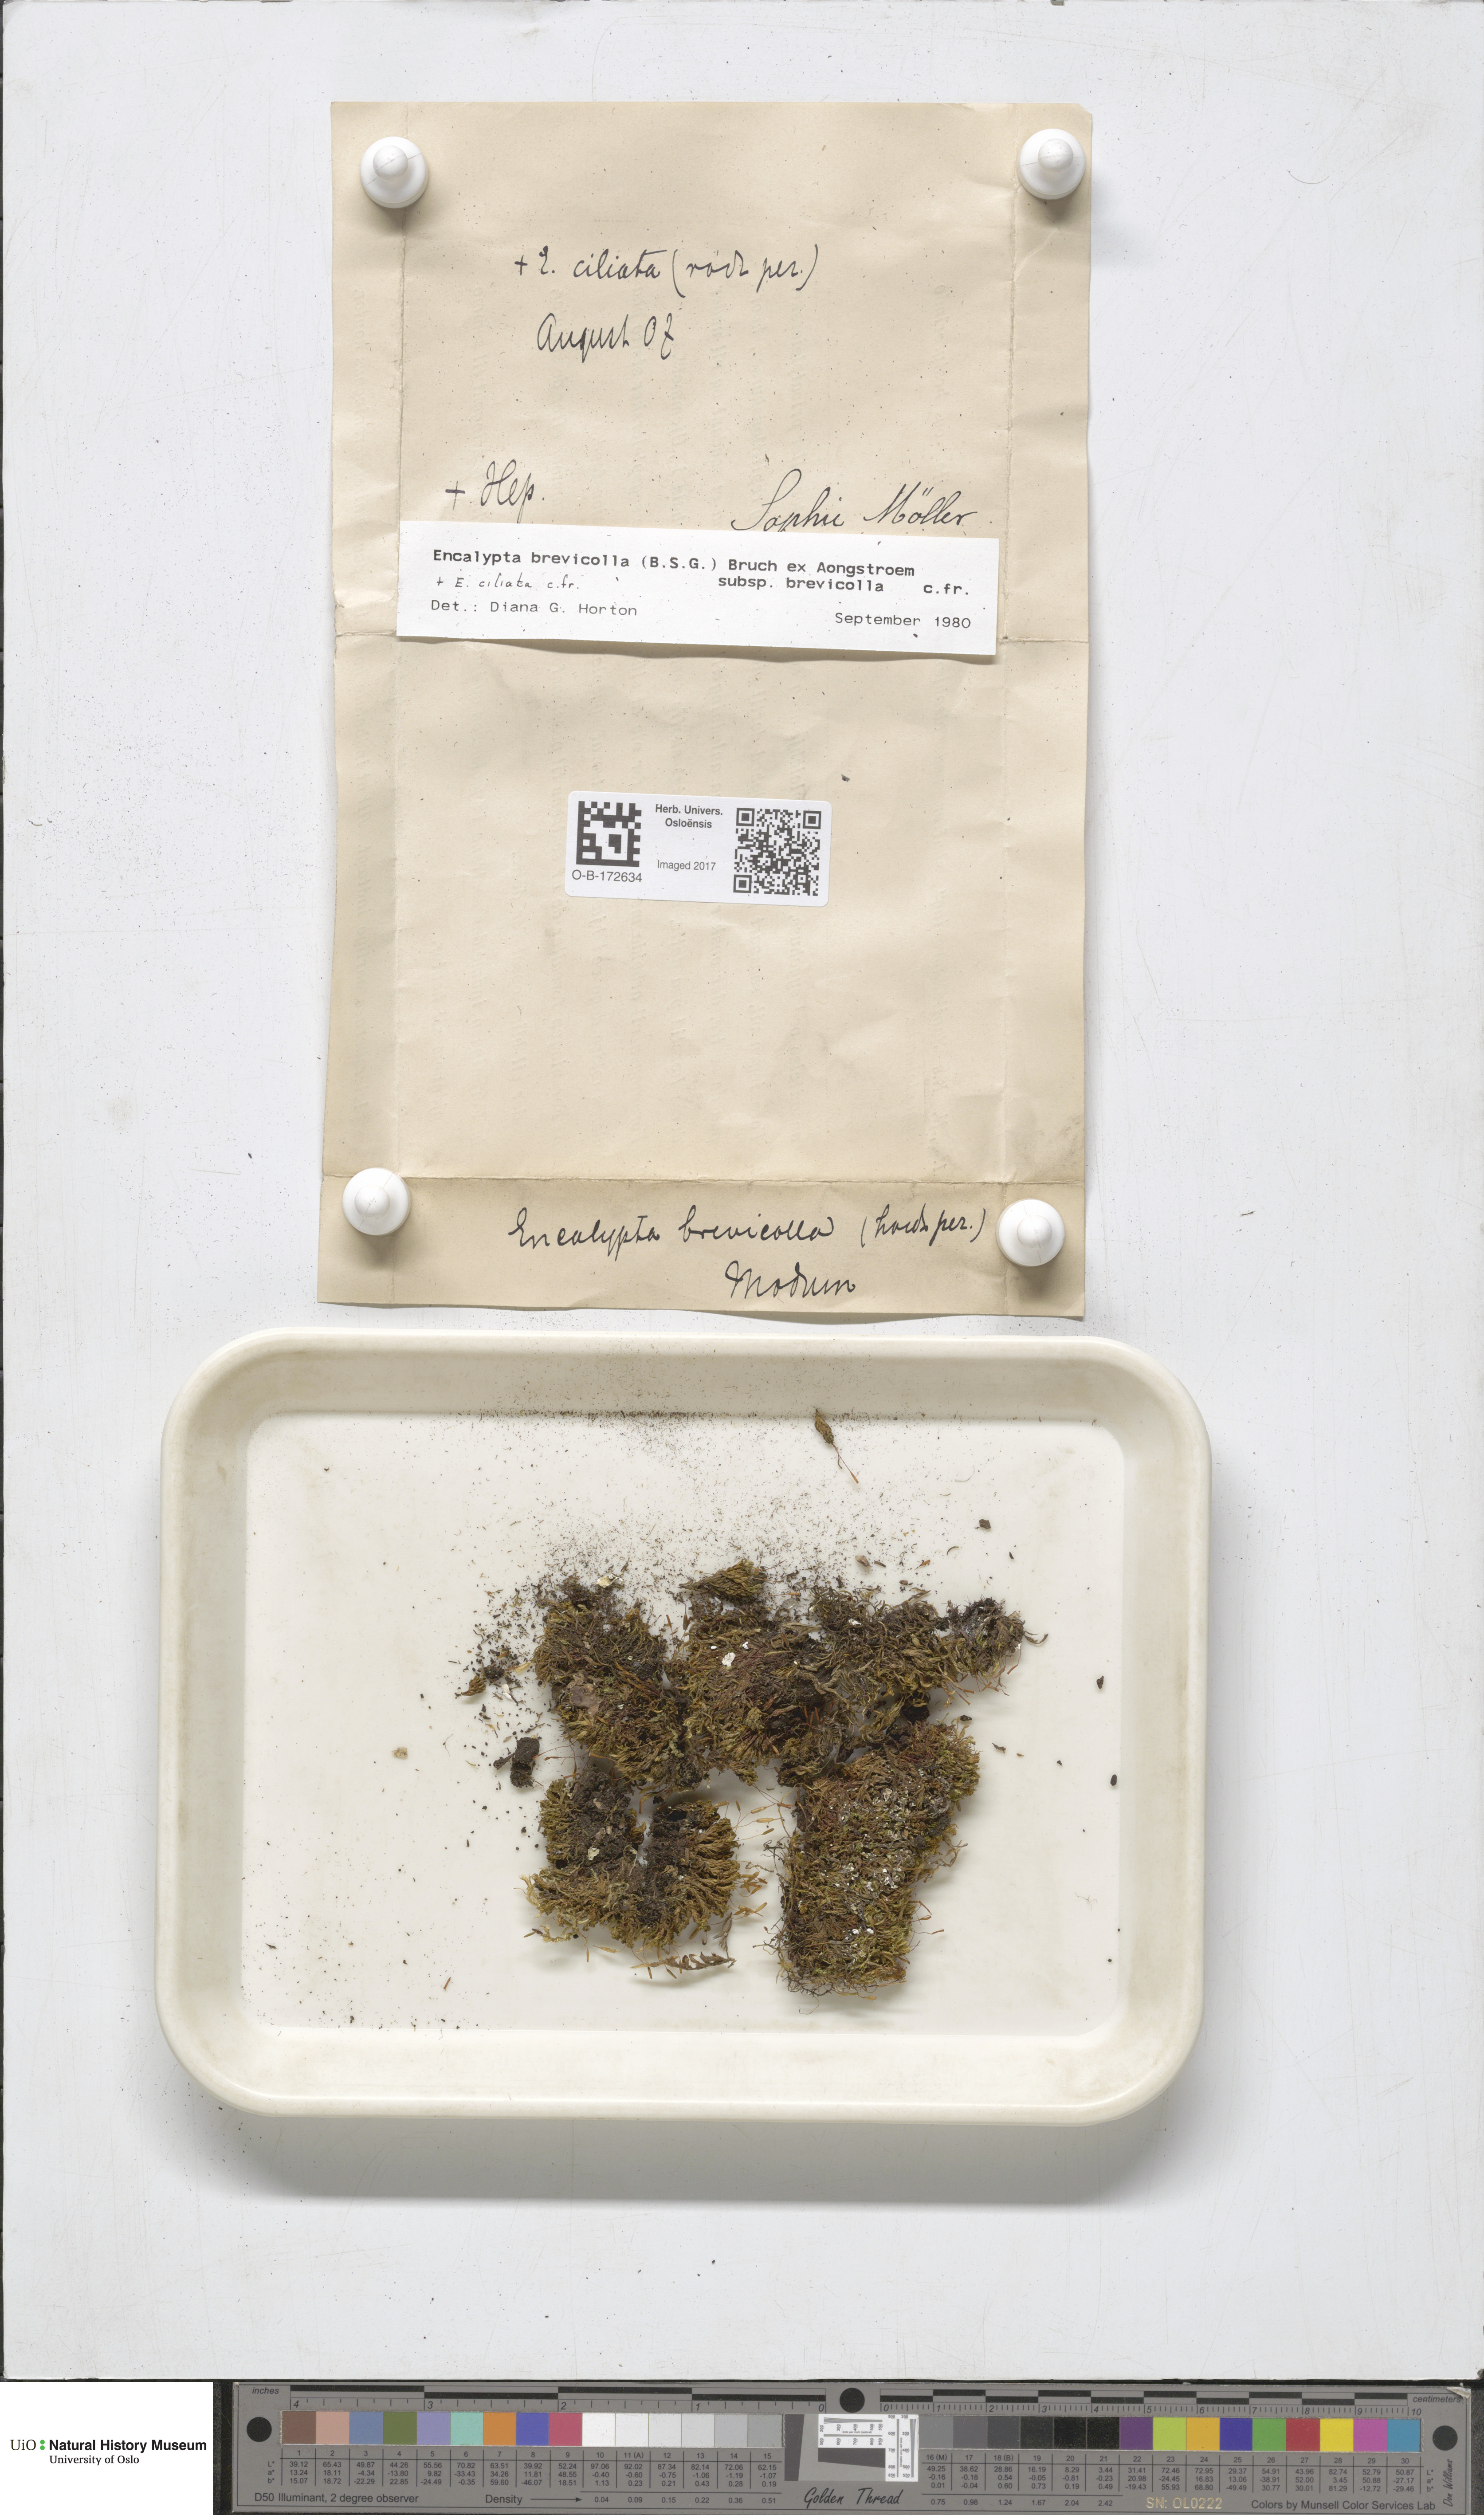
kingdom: Plantae
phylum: Bryophyta
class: Bryopsida
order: Encalyptales
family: Encalyptaceae
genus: Encalypta
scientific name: Encalypta brevicolla
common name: White-mouthed extinguisher-moss
